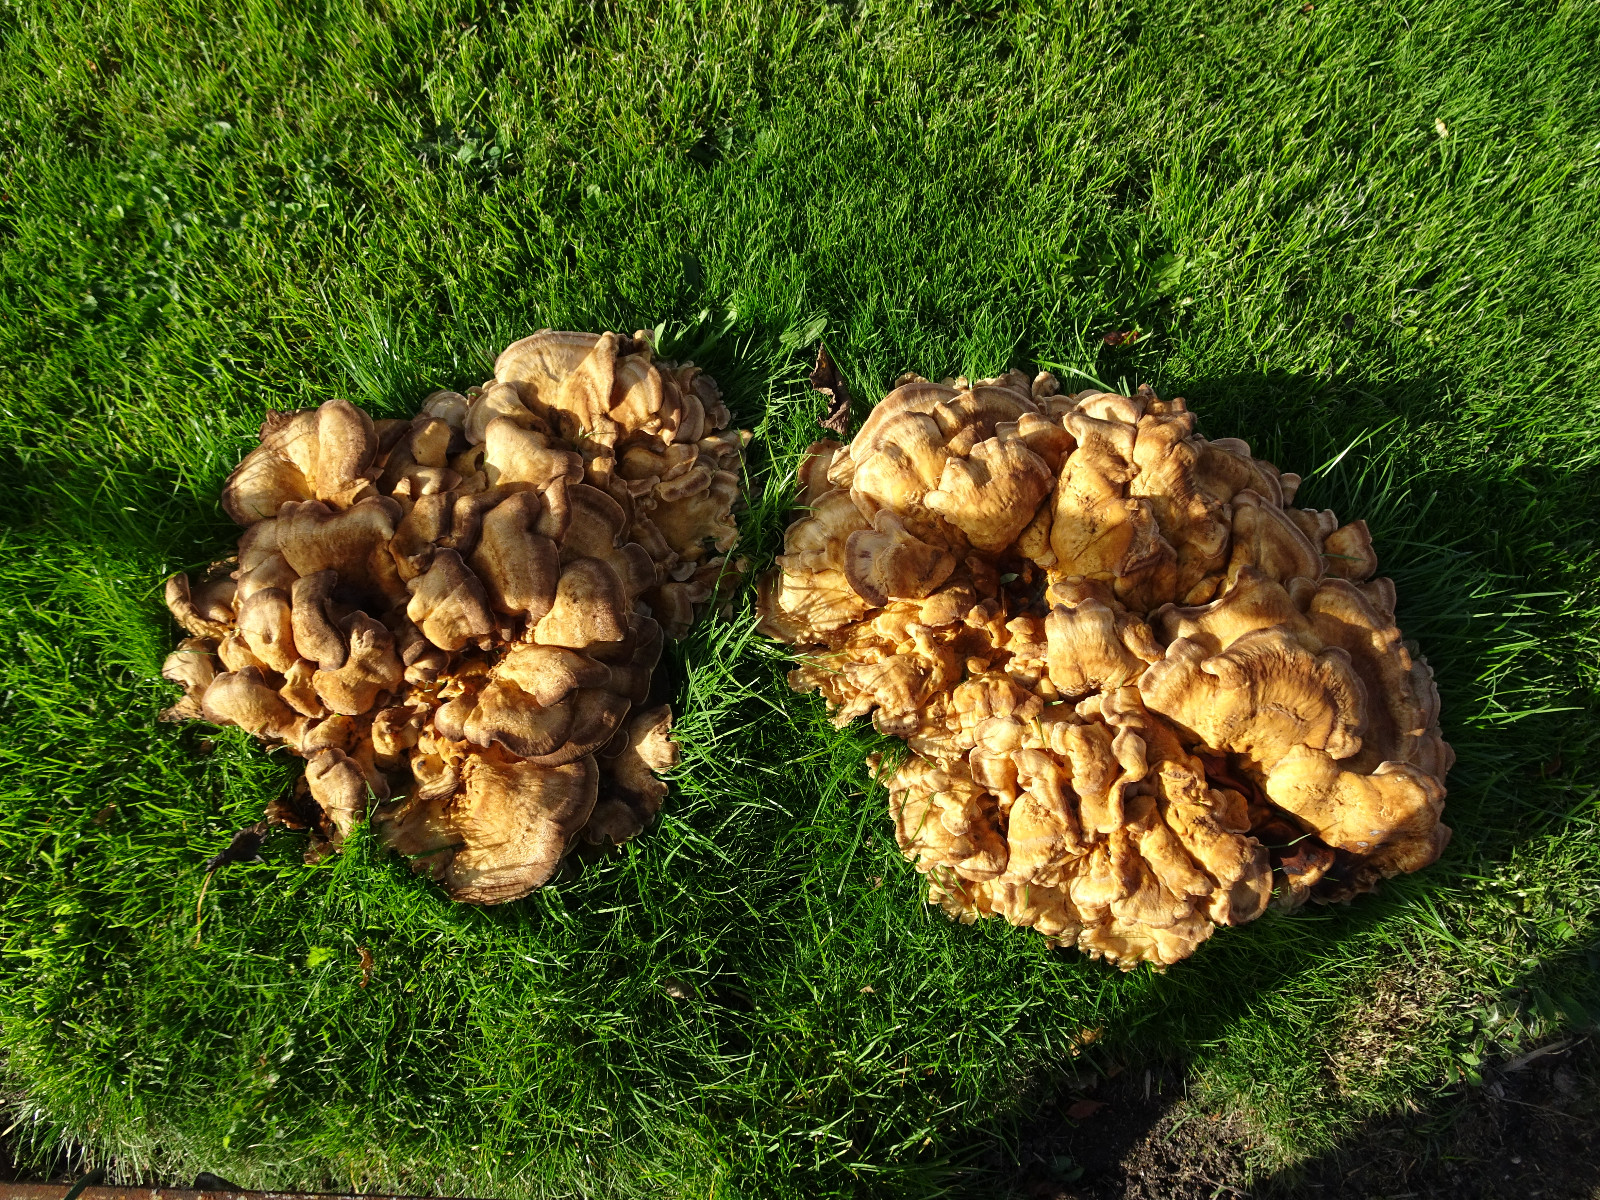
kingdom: Fungi
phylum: Basidiomycota
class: Agaricomycetes
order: Polyporales
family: Meripilaceae
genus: Meripilus
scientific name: Meripilus giganteus
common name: kæmpeporesvamp
